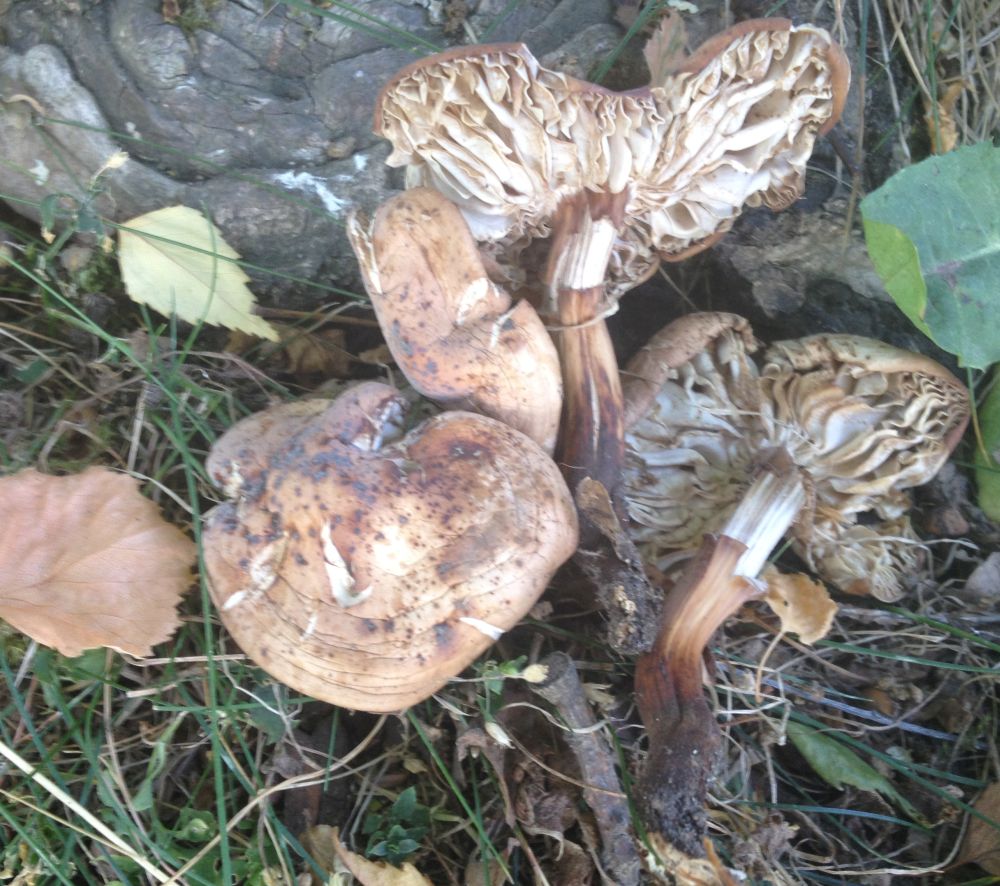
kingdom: Fungi
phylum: Basidiomycota
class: Agaricomycetes
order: Agaricales
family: Omphalotaceae
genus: Gymnopus
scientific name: Gymnopus fusipes
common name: tenstokket fladhat
